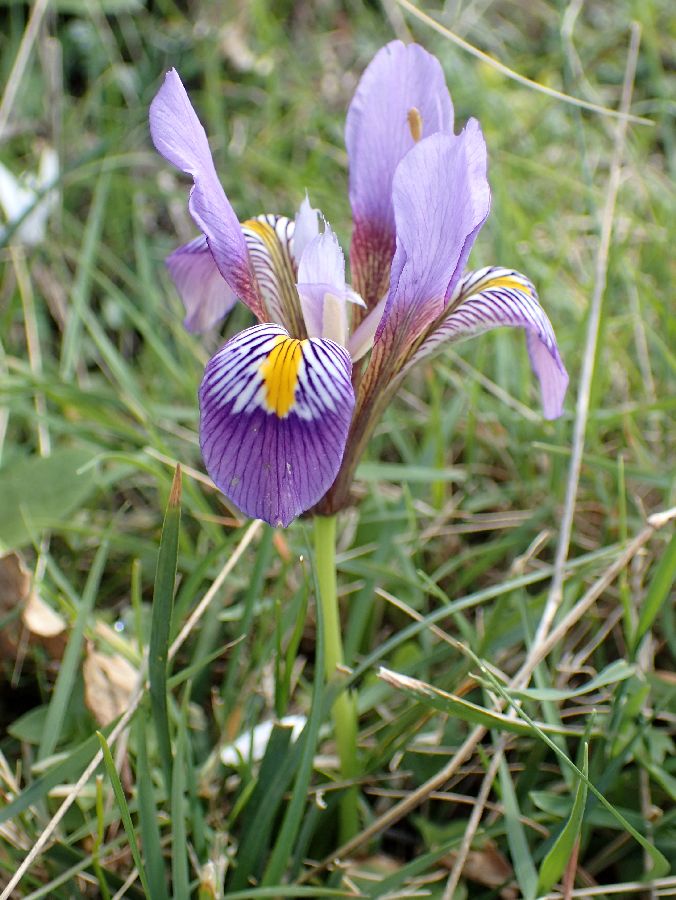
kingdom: Plantae
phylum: Tracheophyta
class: Liliopsida
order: Asparagales
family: Iridaceae
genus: Iris
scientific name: Iris unguicularis
